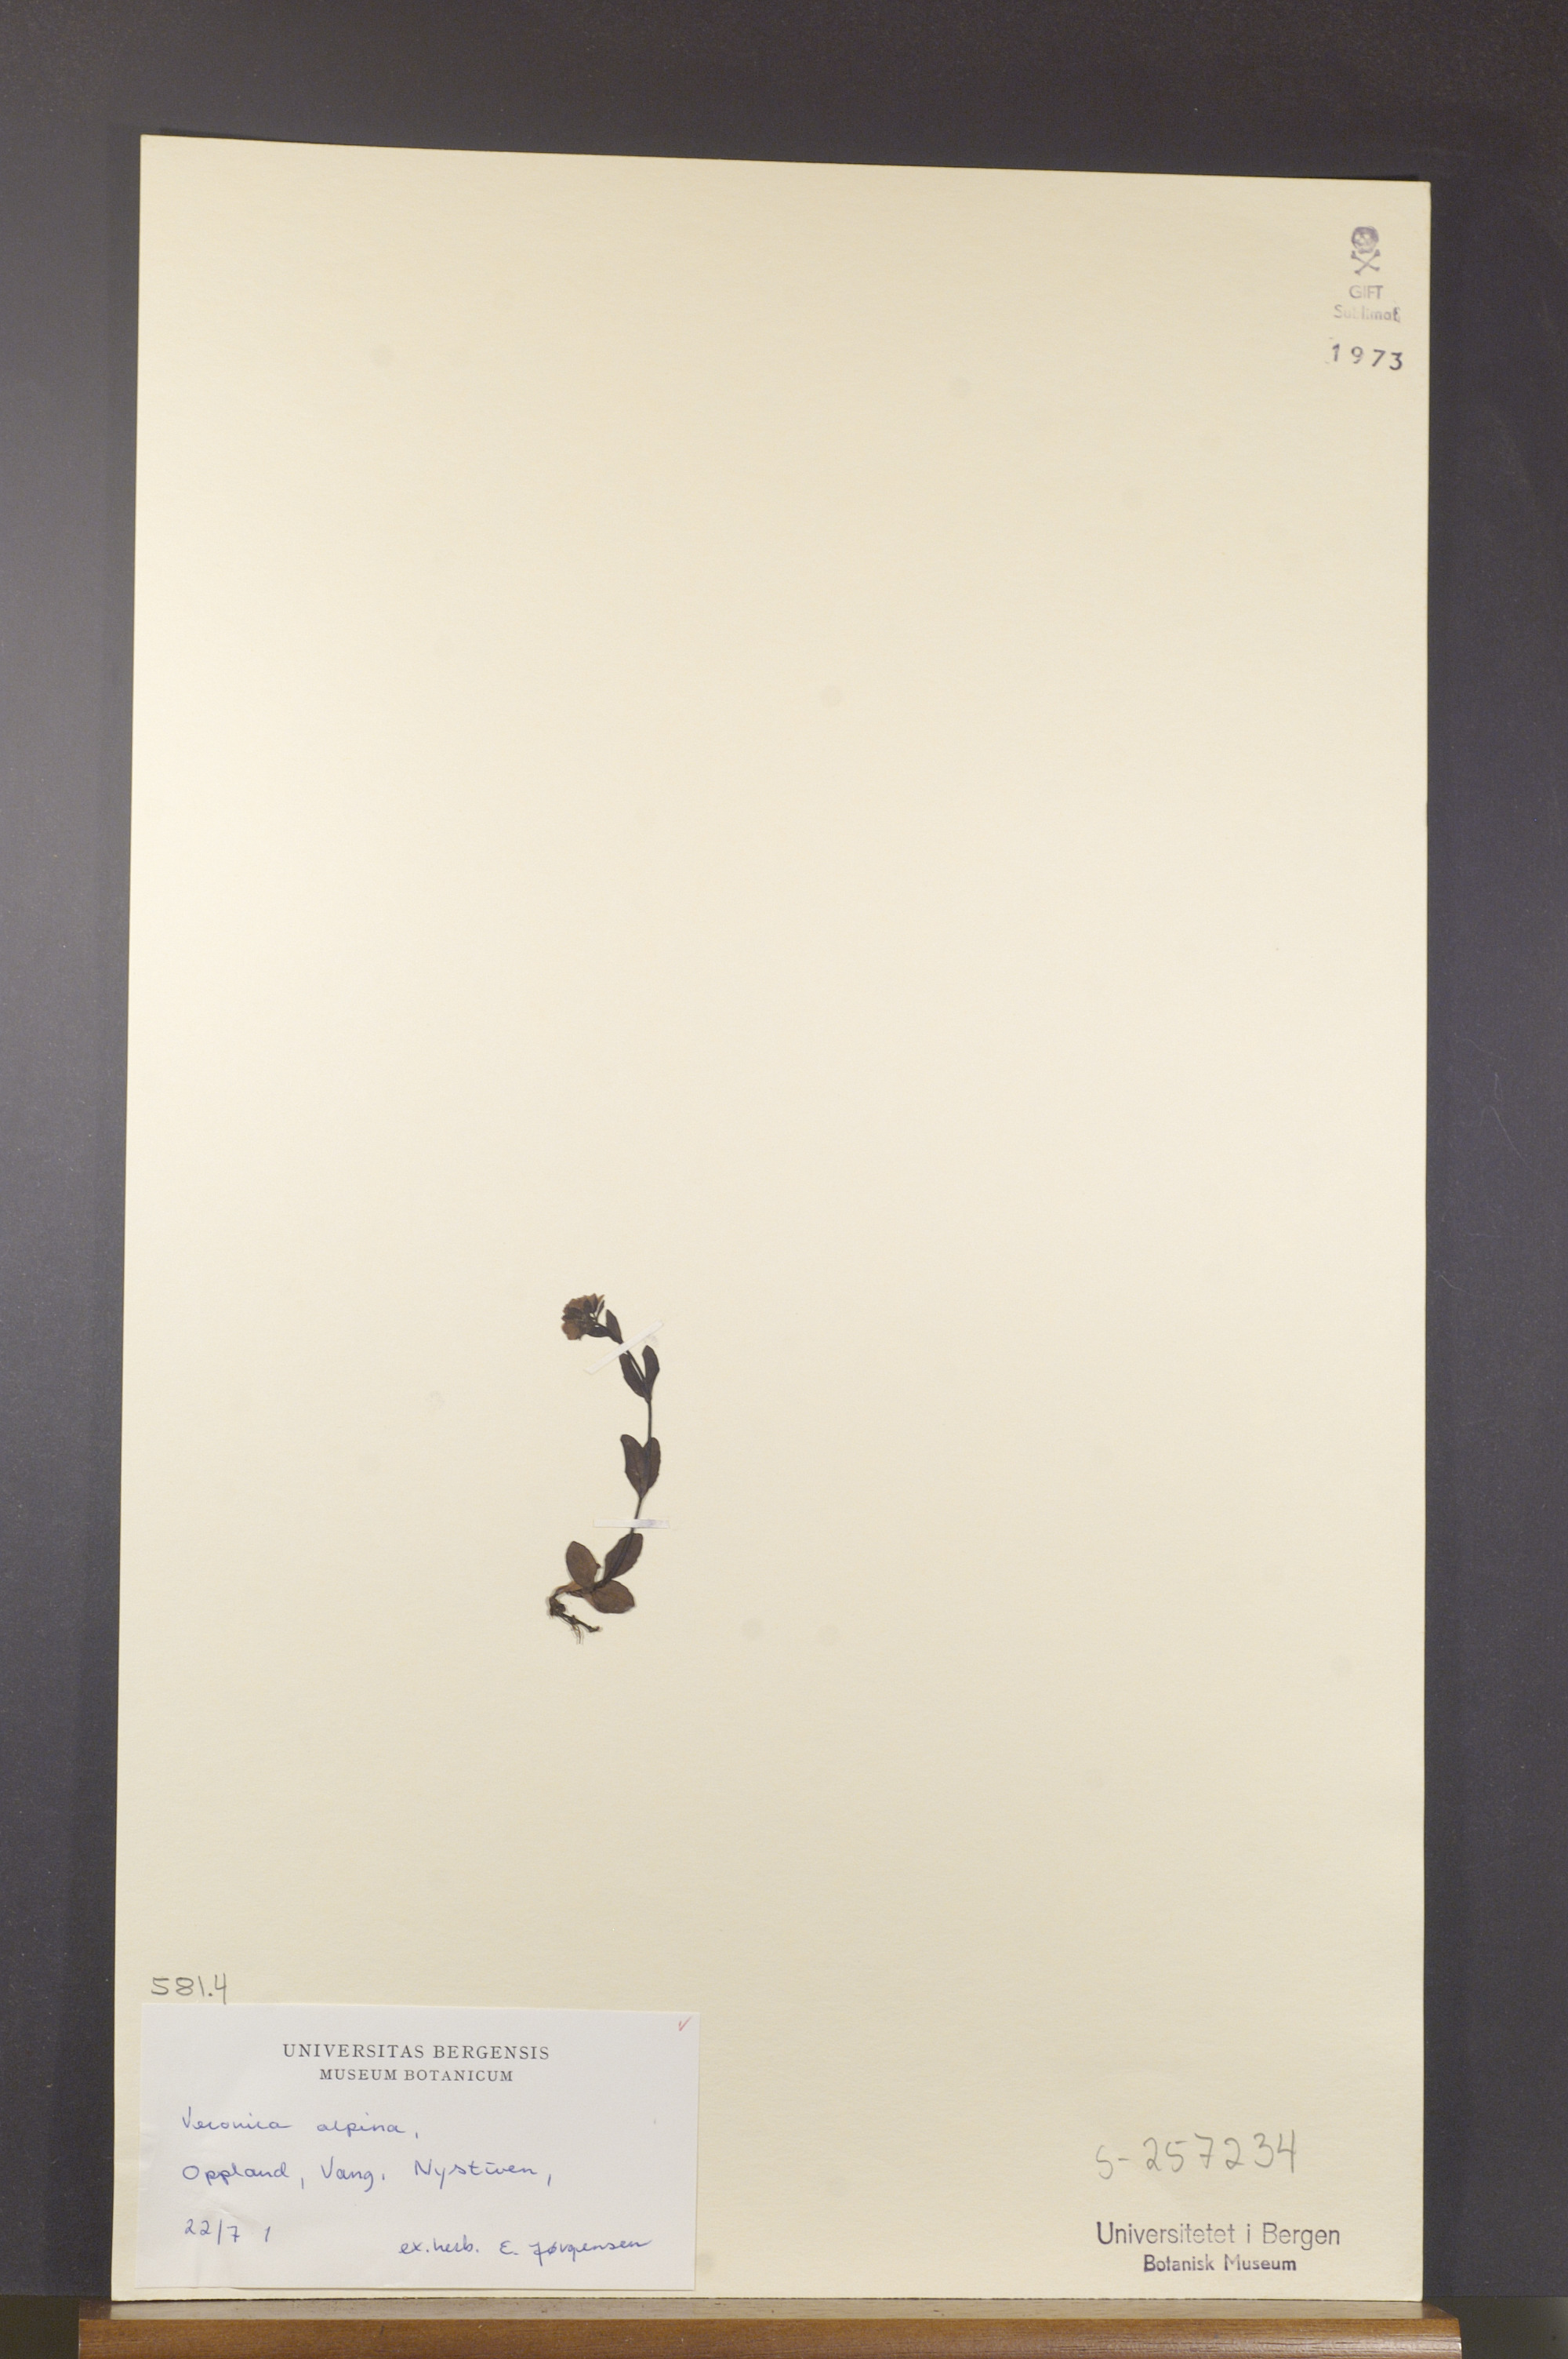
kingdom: Plantae
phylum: Tracheophyta
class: Magnoliopsida
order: Lamiales
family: Plantaginaceae
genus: Veronica
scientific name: Veronica alpina
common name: Alpine speedwell
